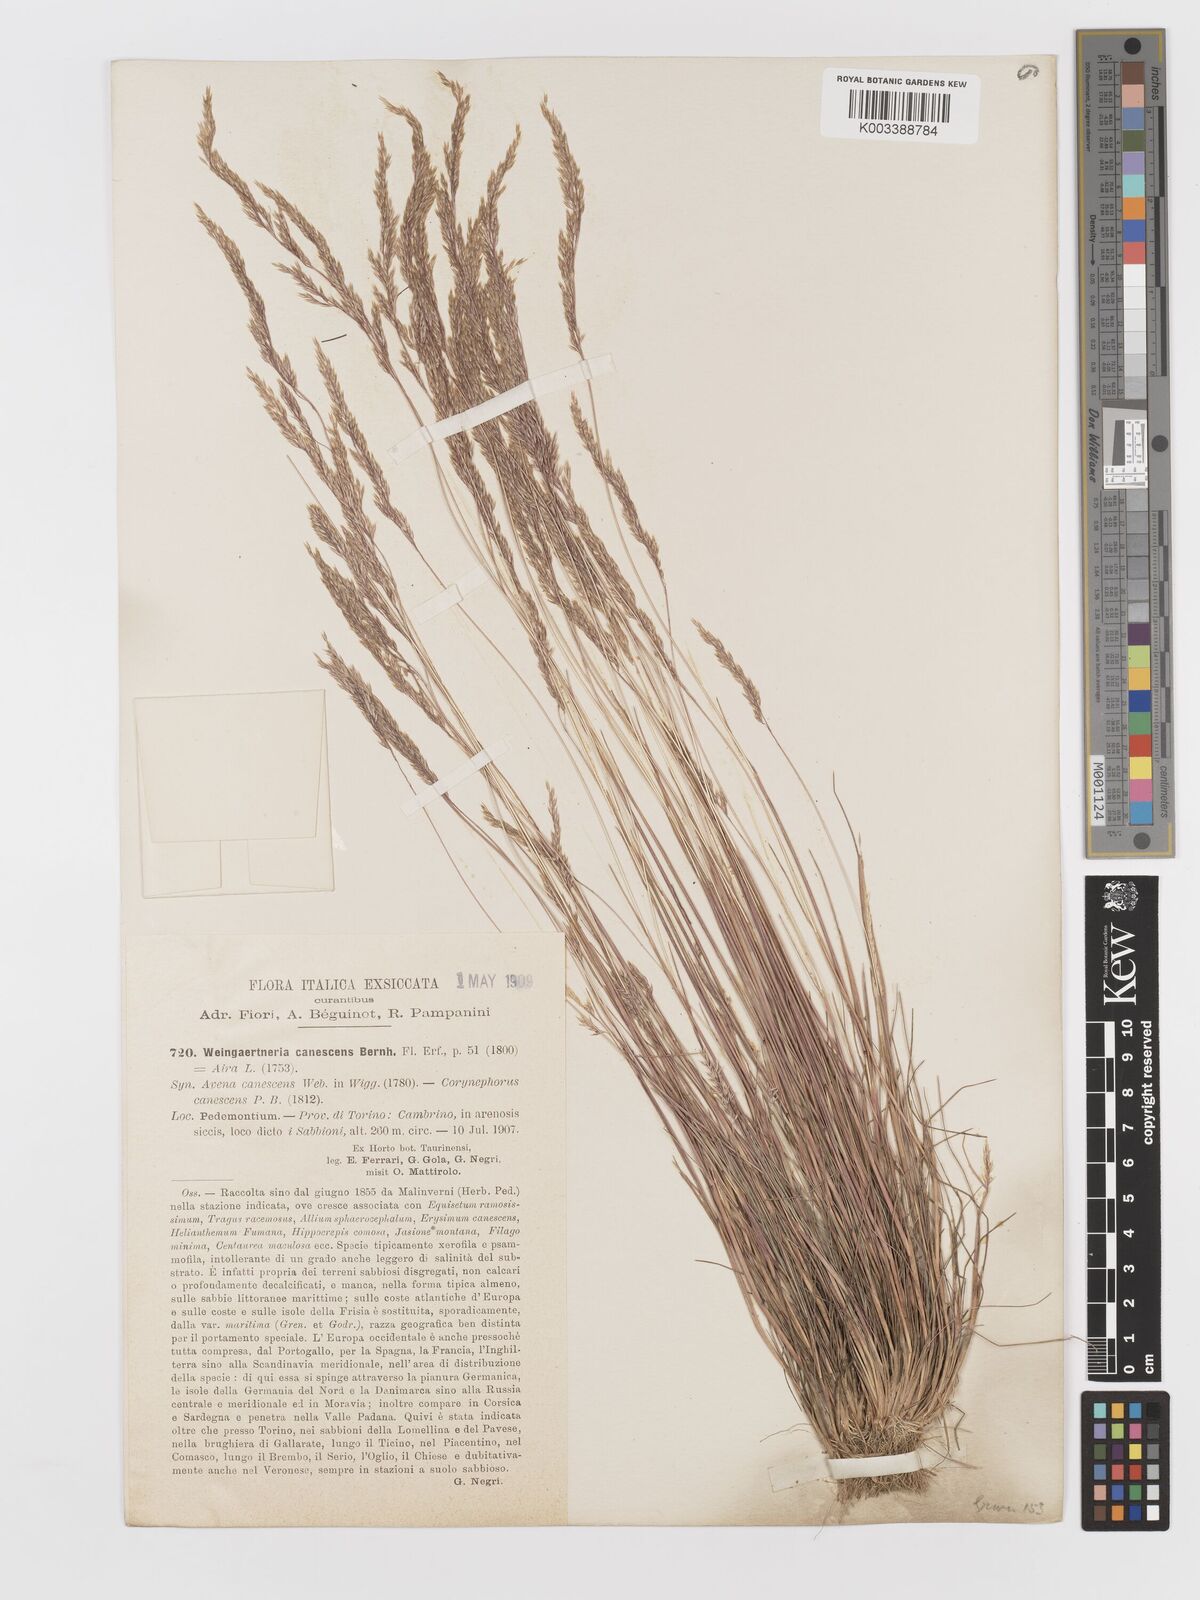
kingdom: Plantae
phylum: Tracheophyta
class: Liliopsida
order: Poales
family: Poaceae
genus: Corynephorus
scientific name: Corynephorus canescens
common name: Grey hair-grass
